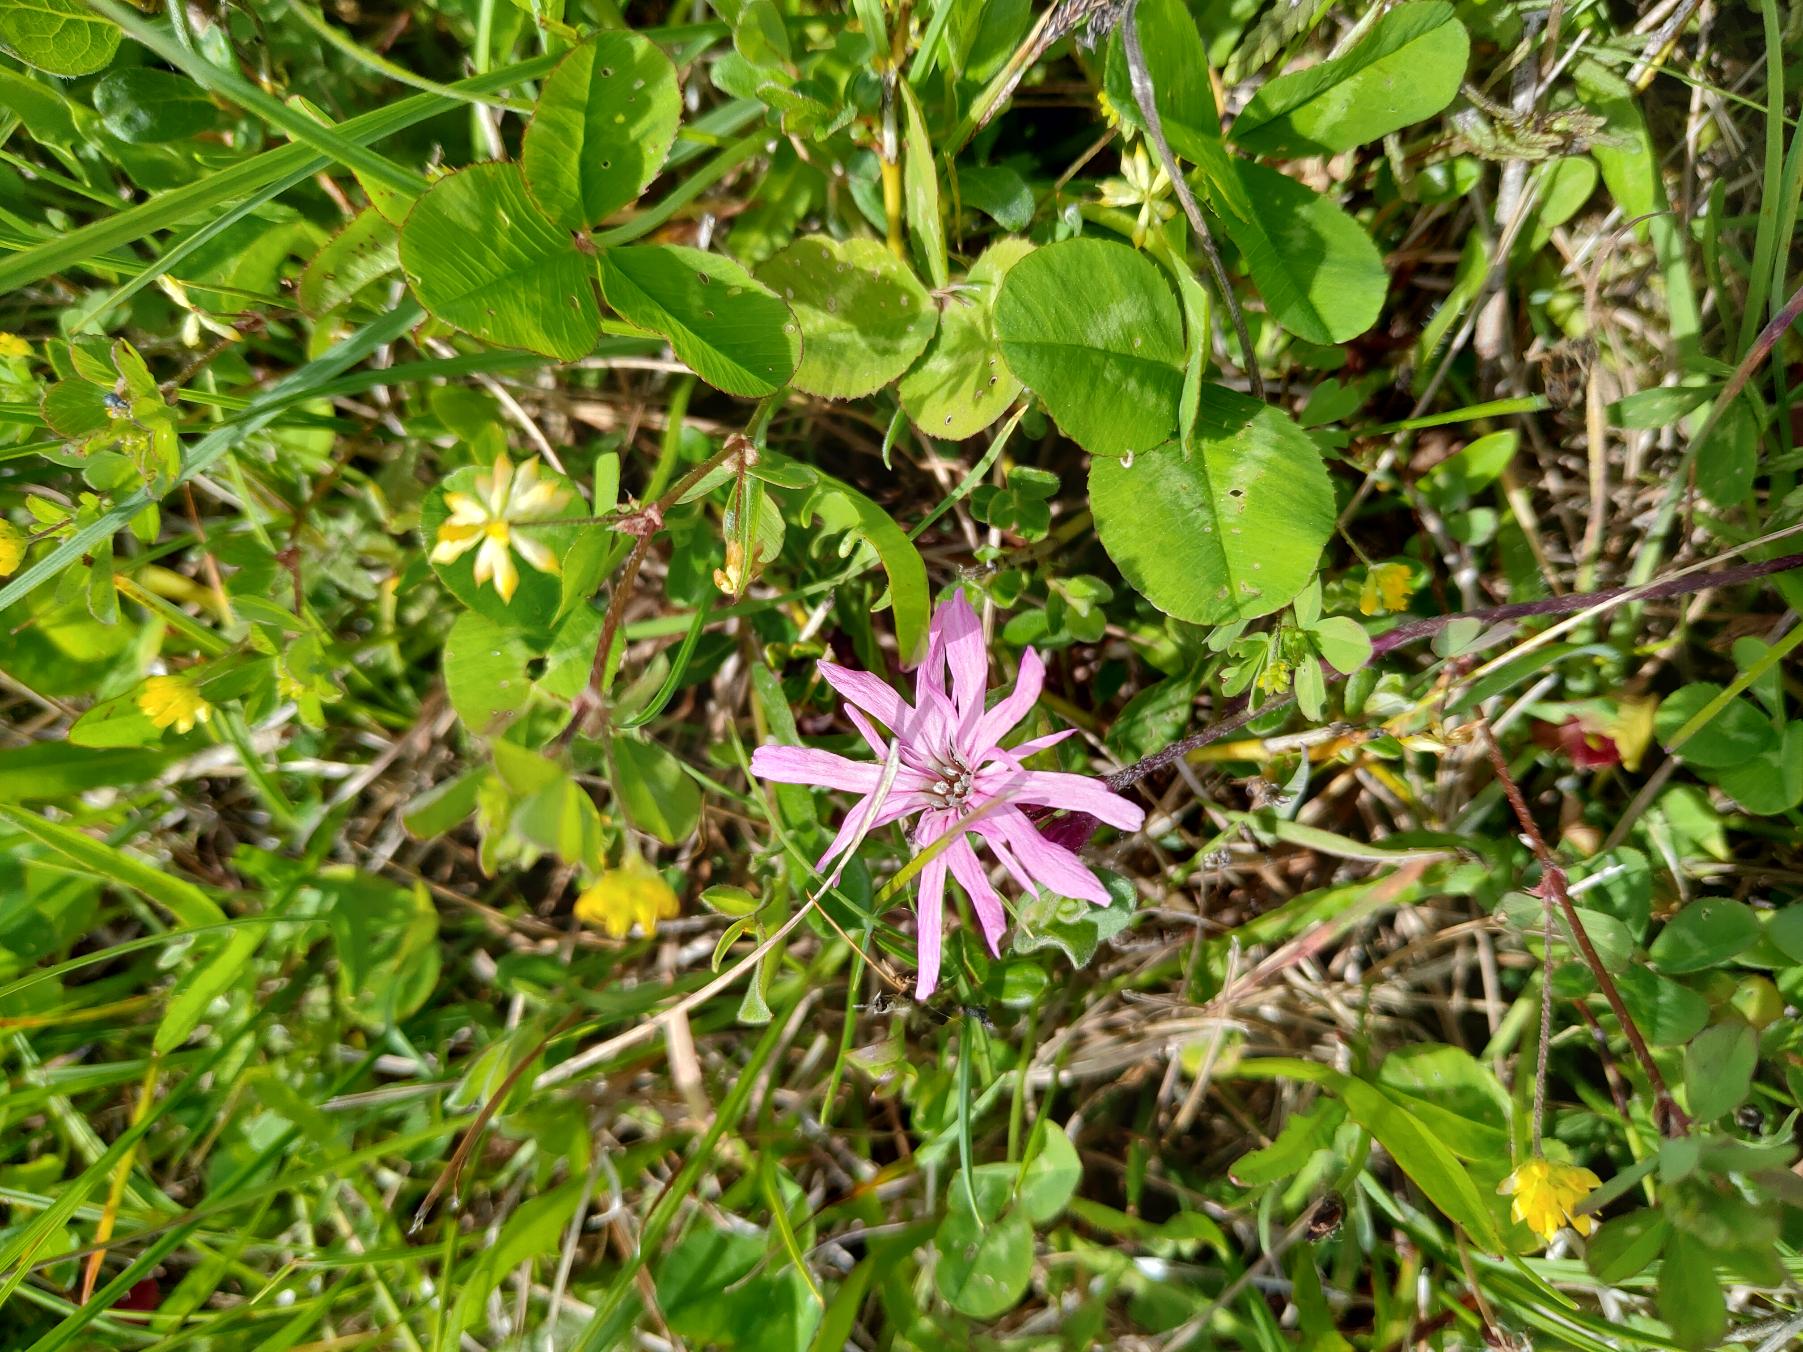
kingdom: Plantae
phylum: Tracheophyta
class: Magnoliopsida
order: Caryophyllales
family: Caryophyllaceae
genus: Silene
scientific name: Silene flos-cuculi
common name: Trævlekrone
